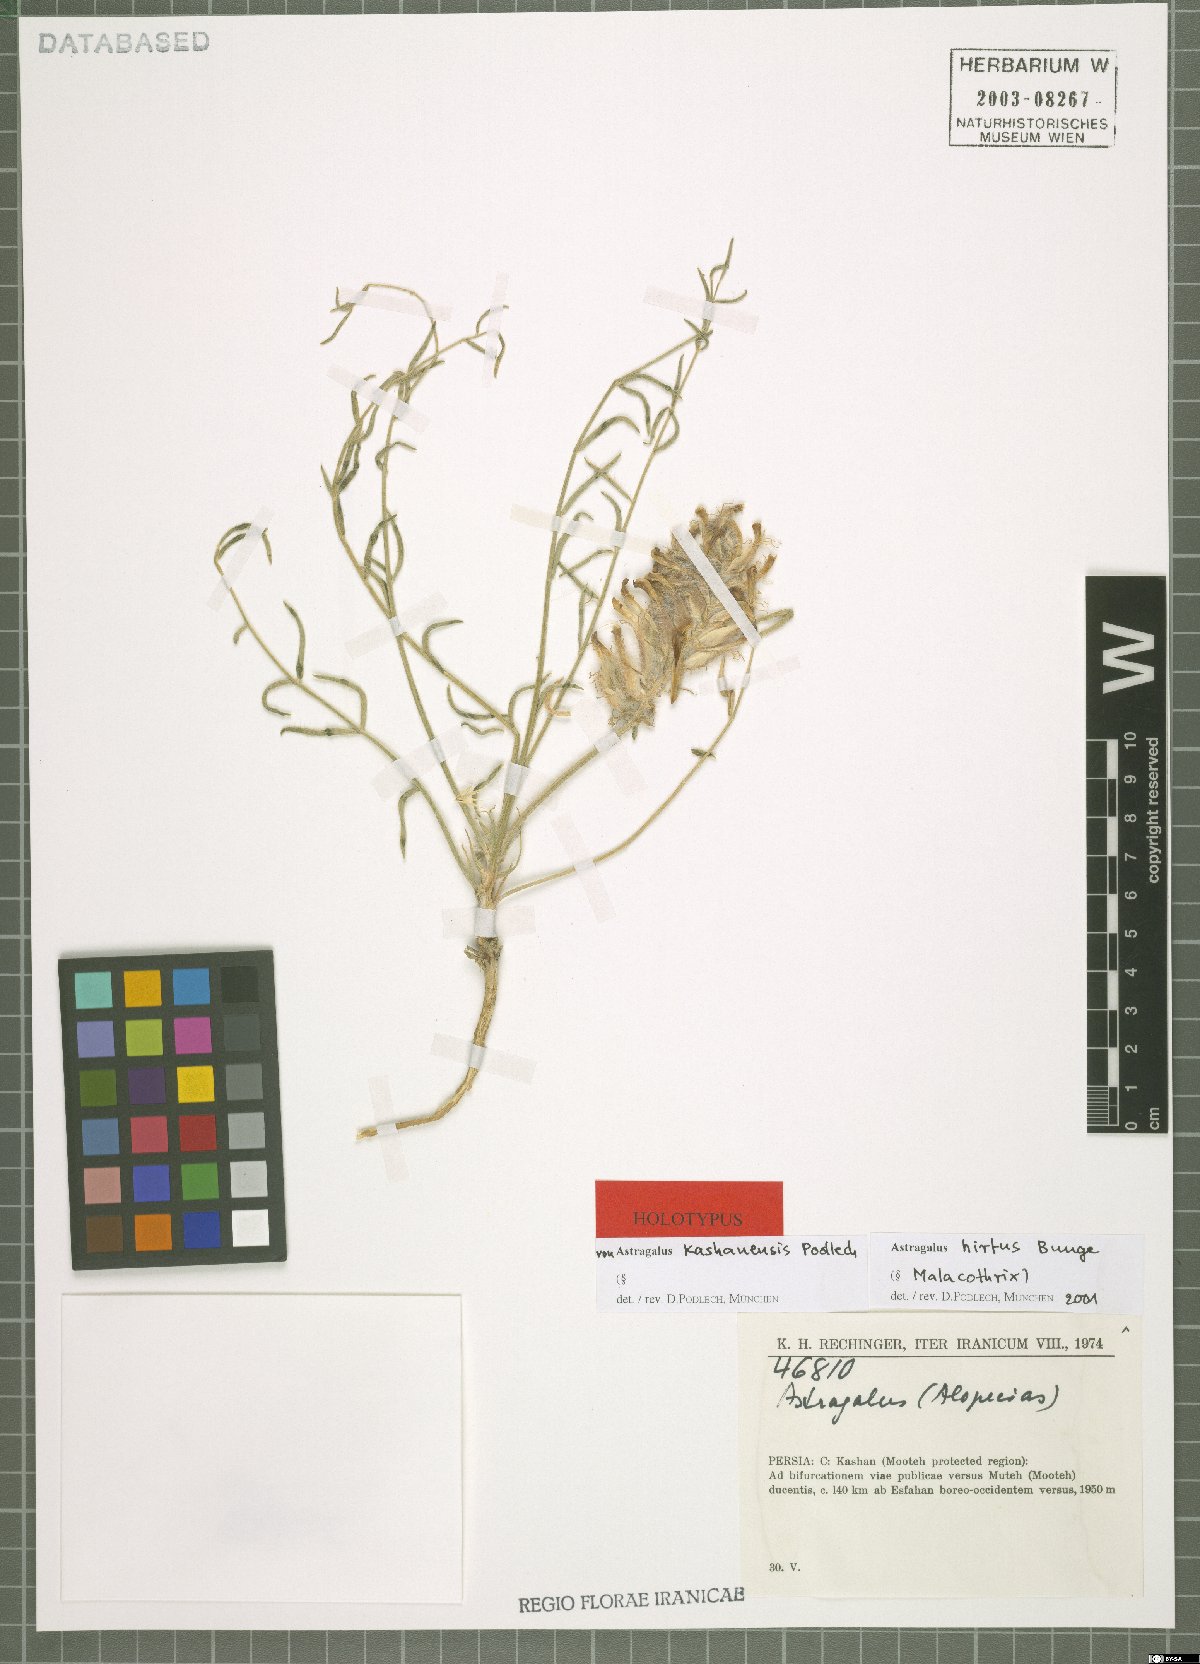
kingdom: Plantae
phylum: Tracheophyta
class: Magnoliopsida
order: Fabales
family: Fabaceae
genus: Astragalus
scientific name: Astragalus hirtus
